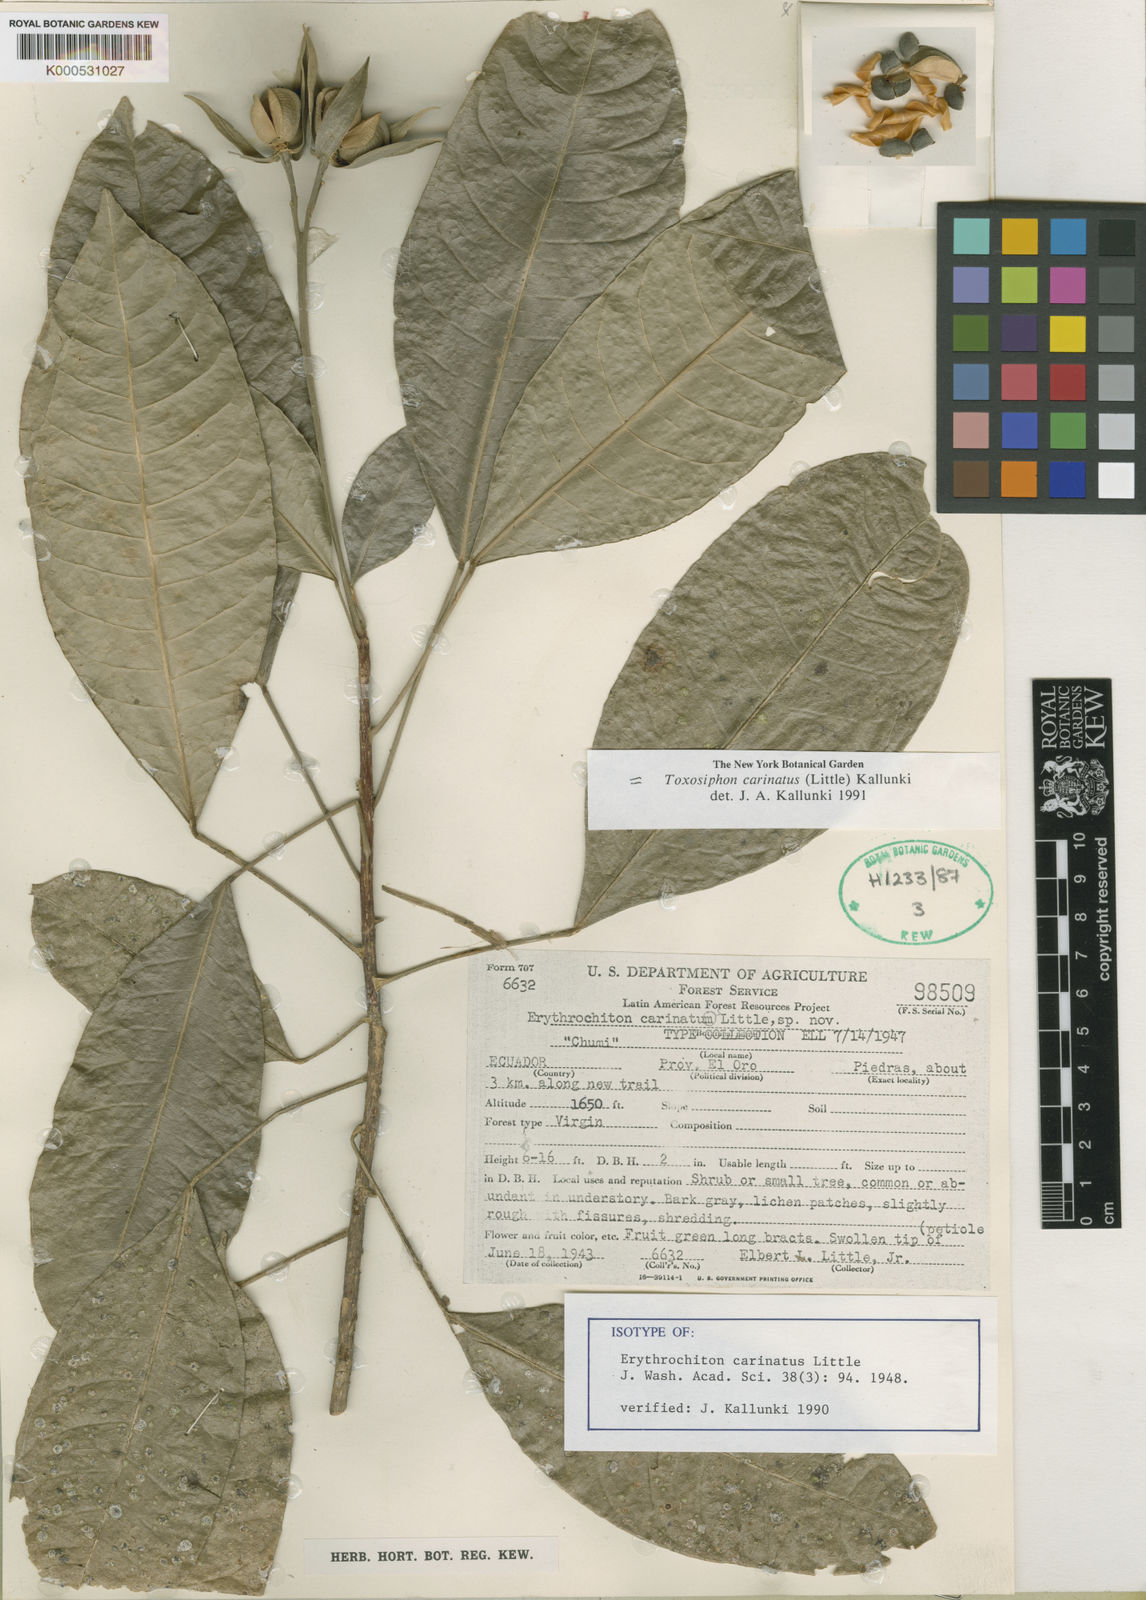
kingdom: Plantae
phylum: Tracheophyta
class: Magnoliopsida
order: Sapindales
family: Rutaceae
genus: Toxosiphon
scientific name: Toxosiphon carinatus
